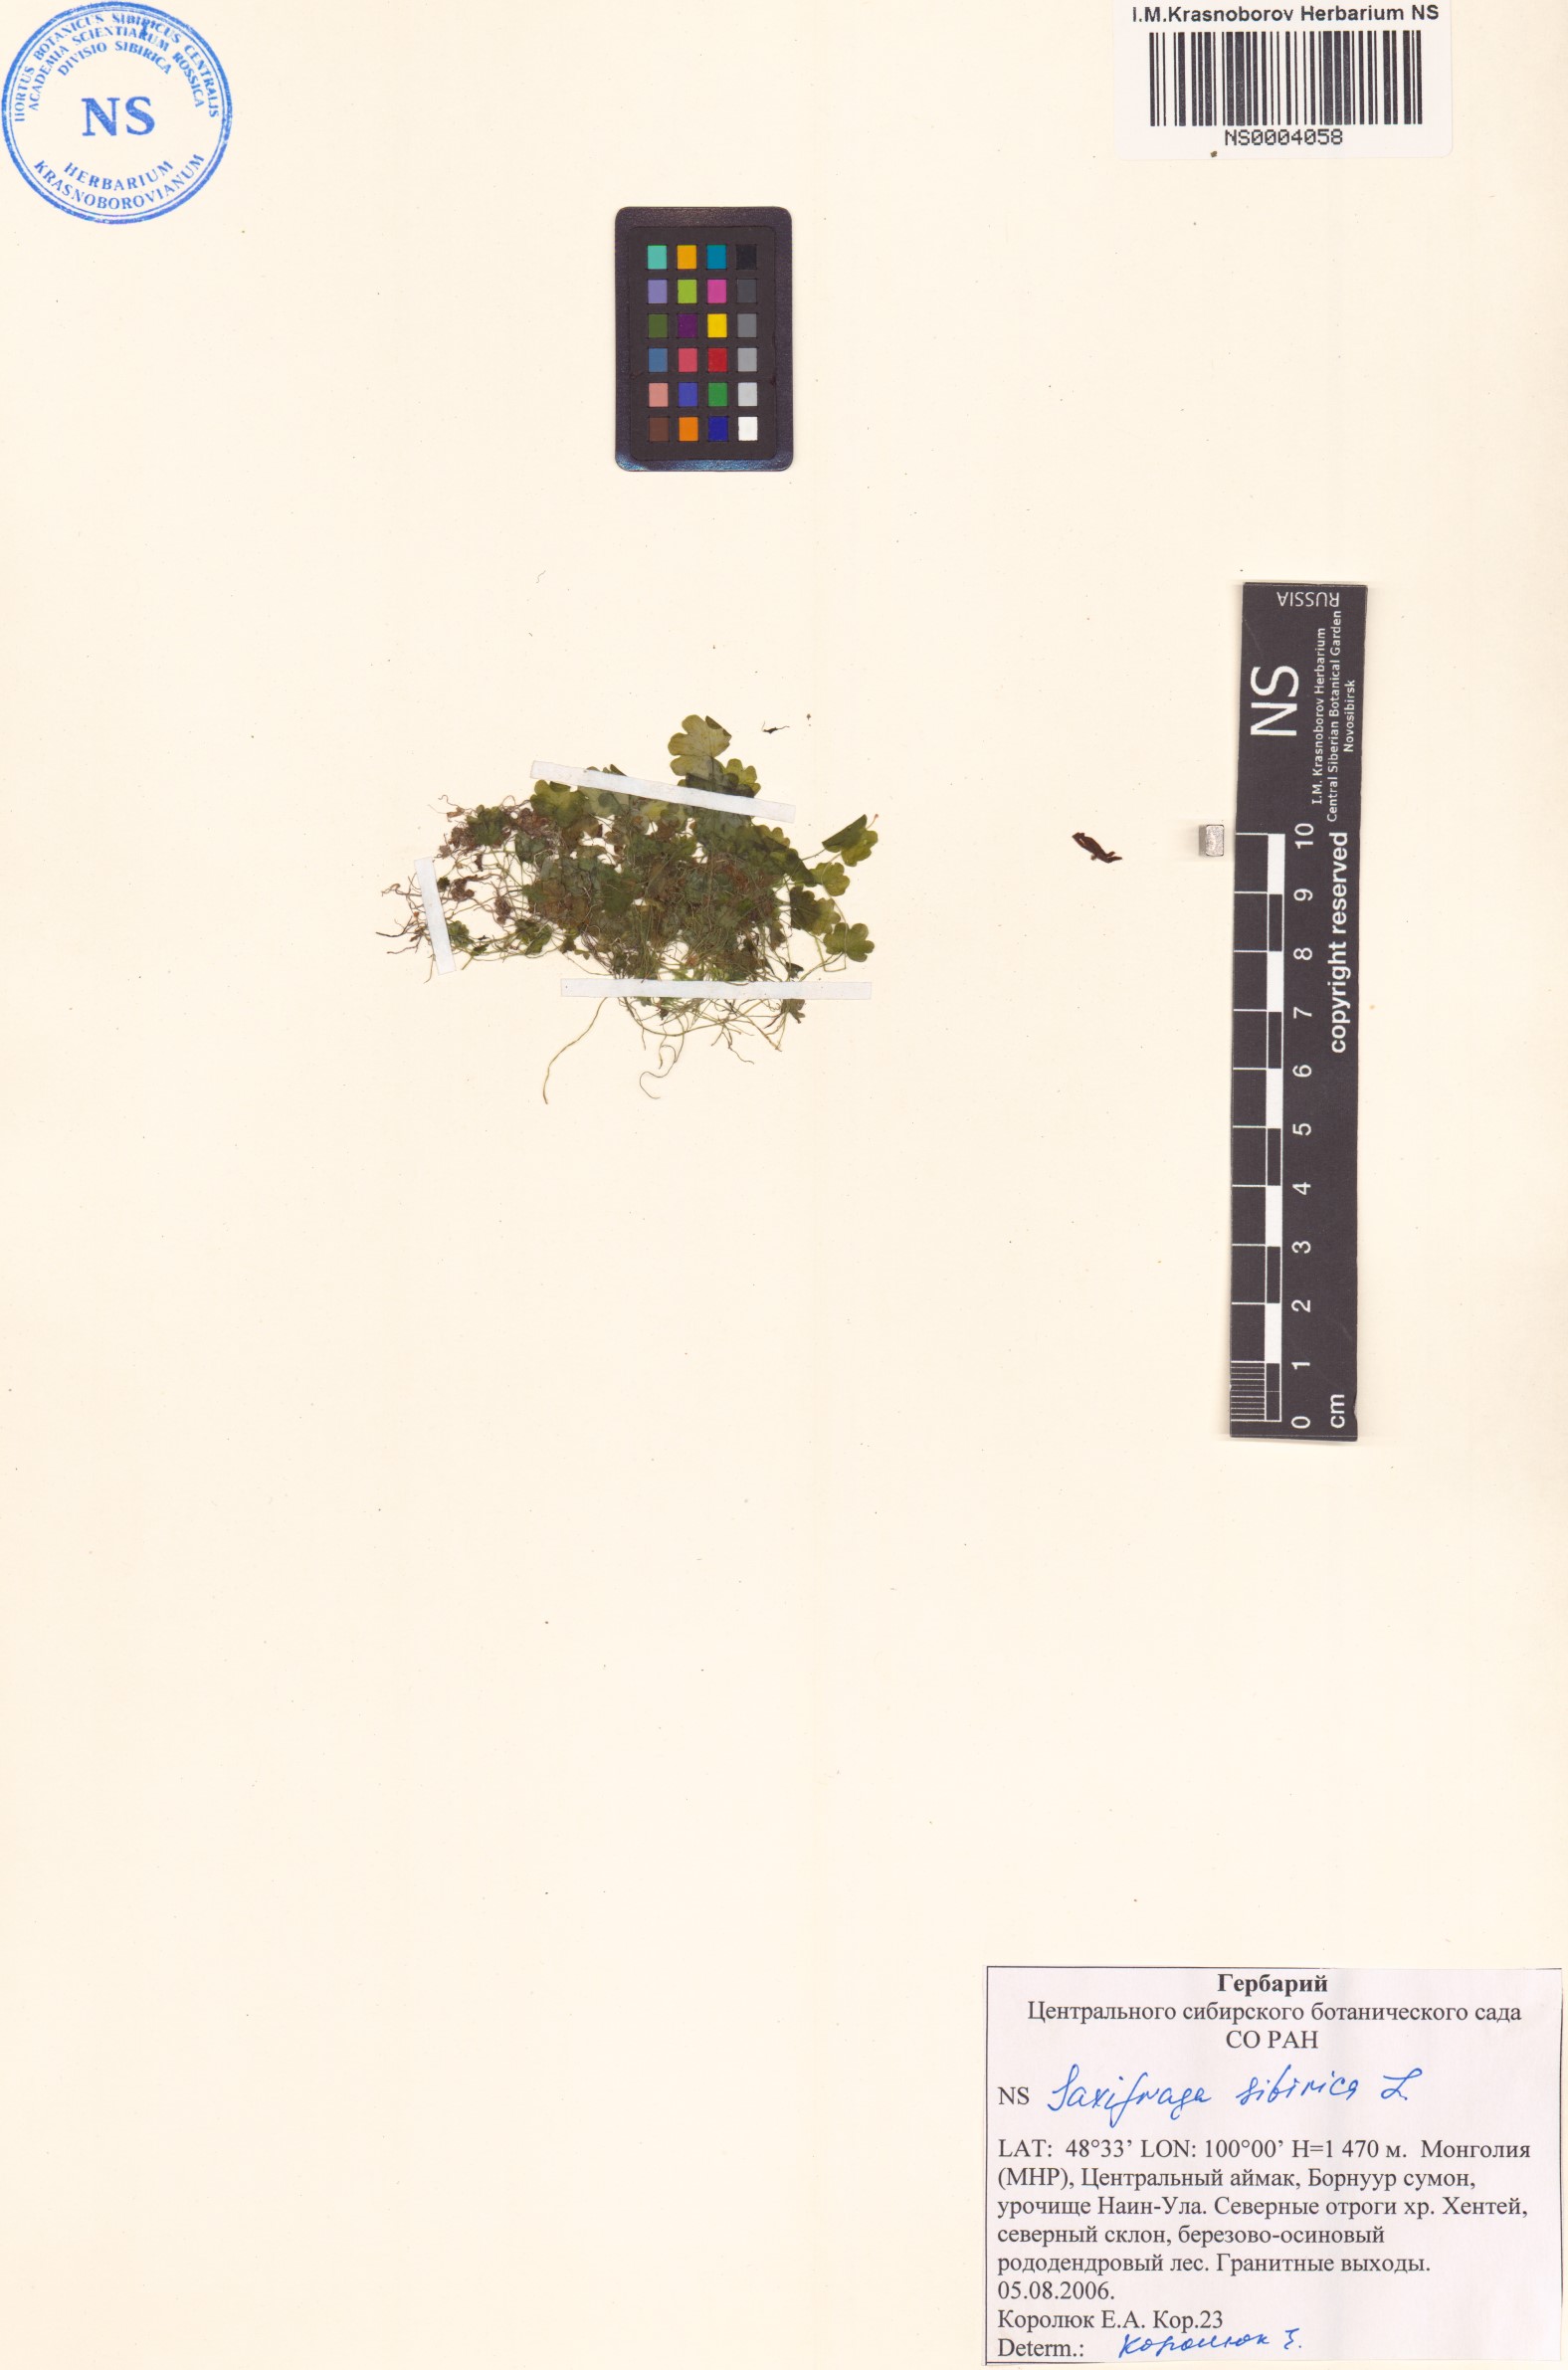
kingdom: Plantae
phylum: Tracheophyta
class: Magnoliopsida
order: Saxifragales
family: Saxifragaceae
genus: Saxifraga
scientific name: Saxifraga sibirica
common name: Siberian saxifrage
